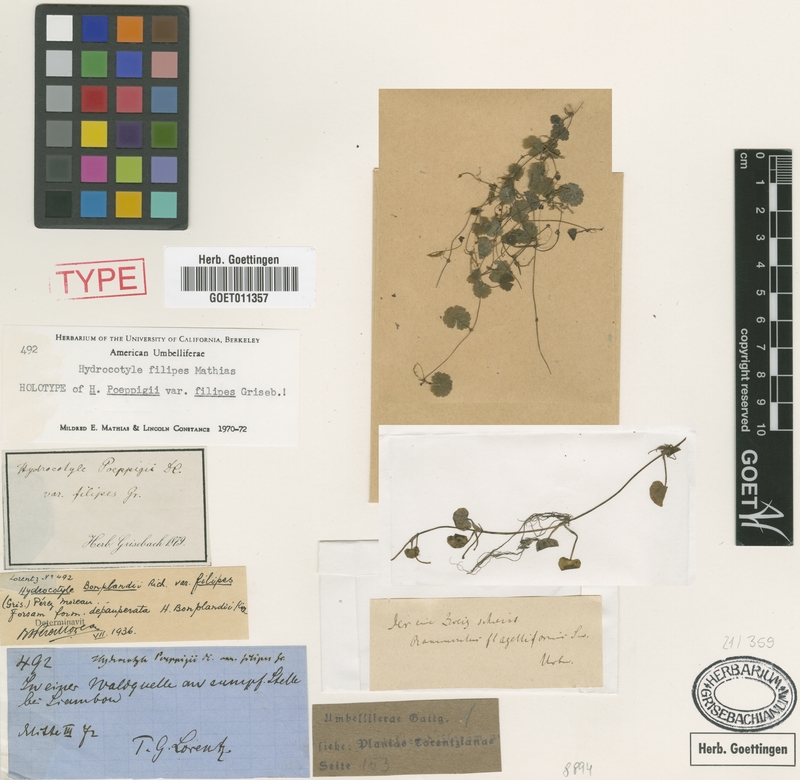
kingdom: Plantae
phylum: Tracheophyta
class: Magnoliopsida
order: Apiales
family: Araliaceae
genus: Hydrocotyle
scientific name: Hydrocotyle filipes
